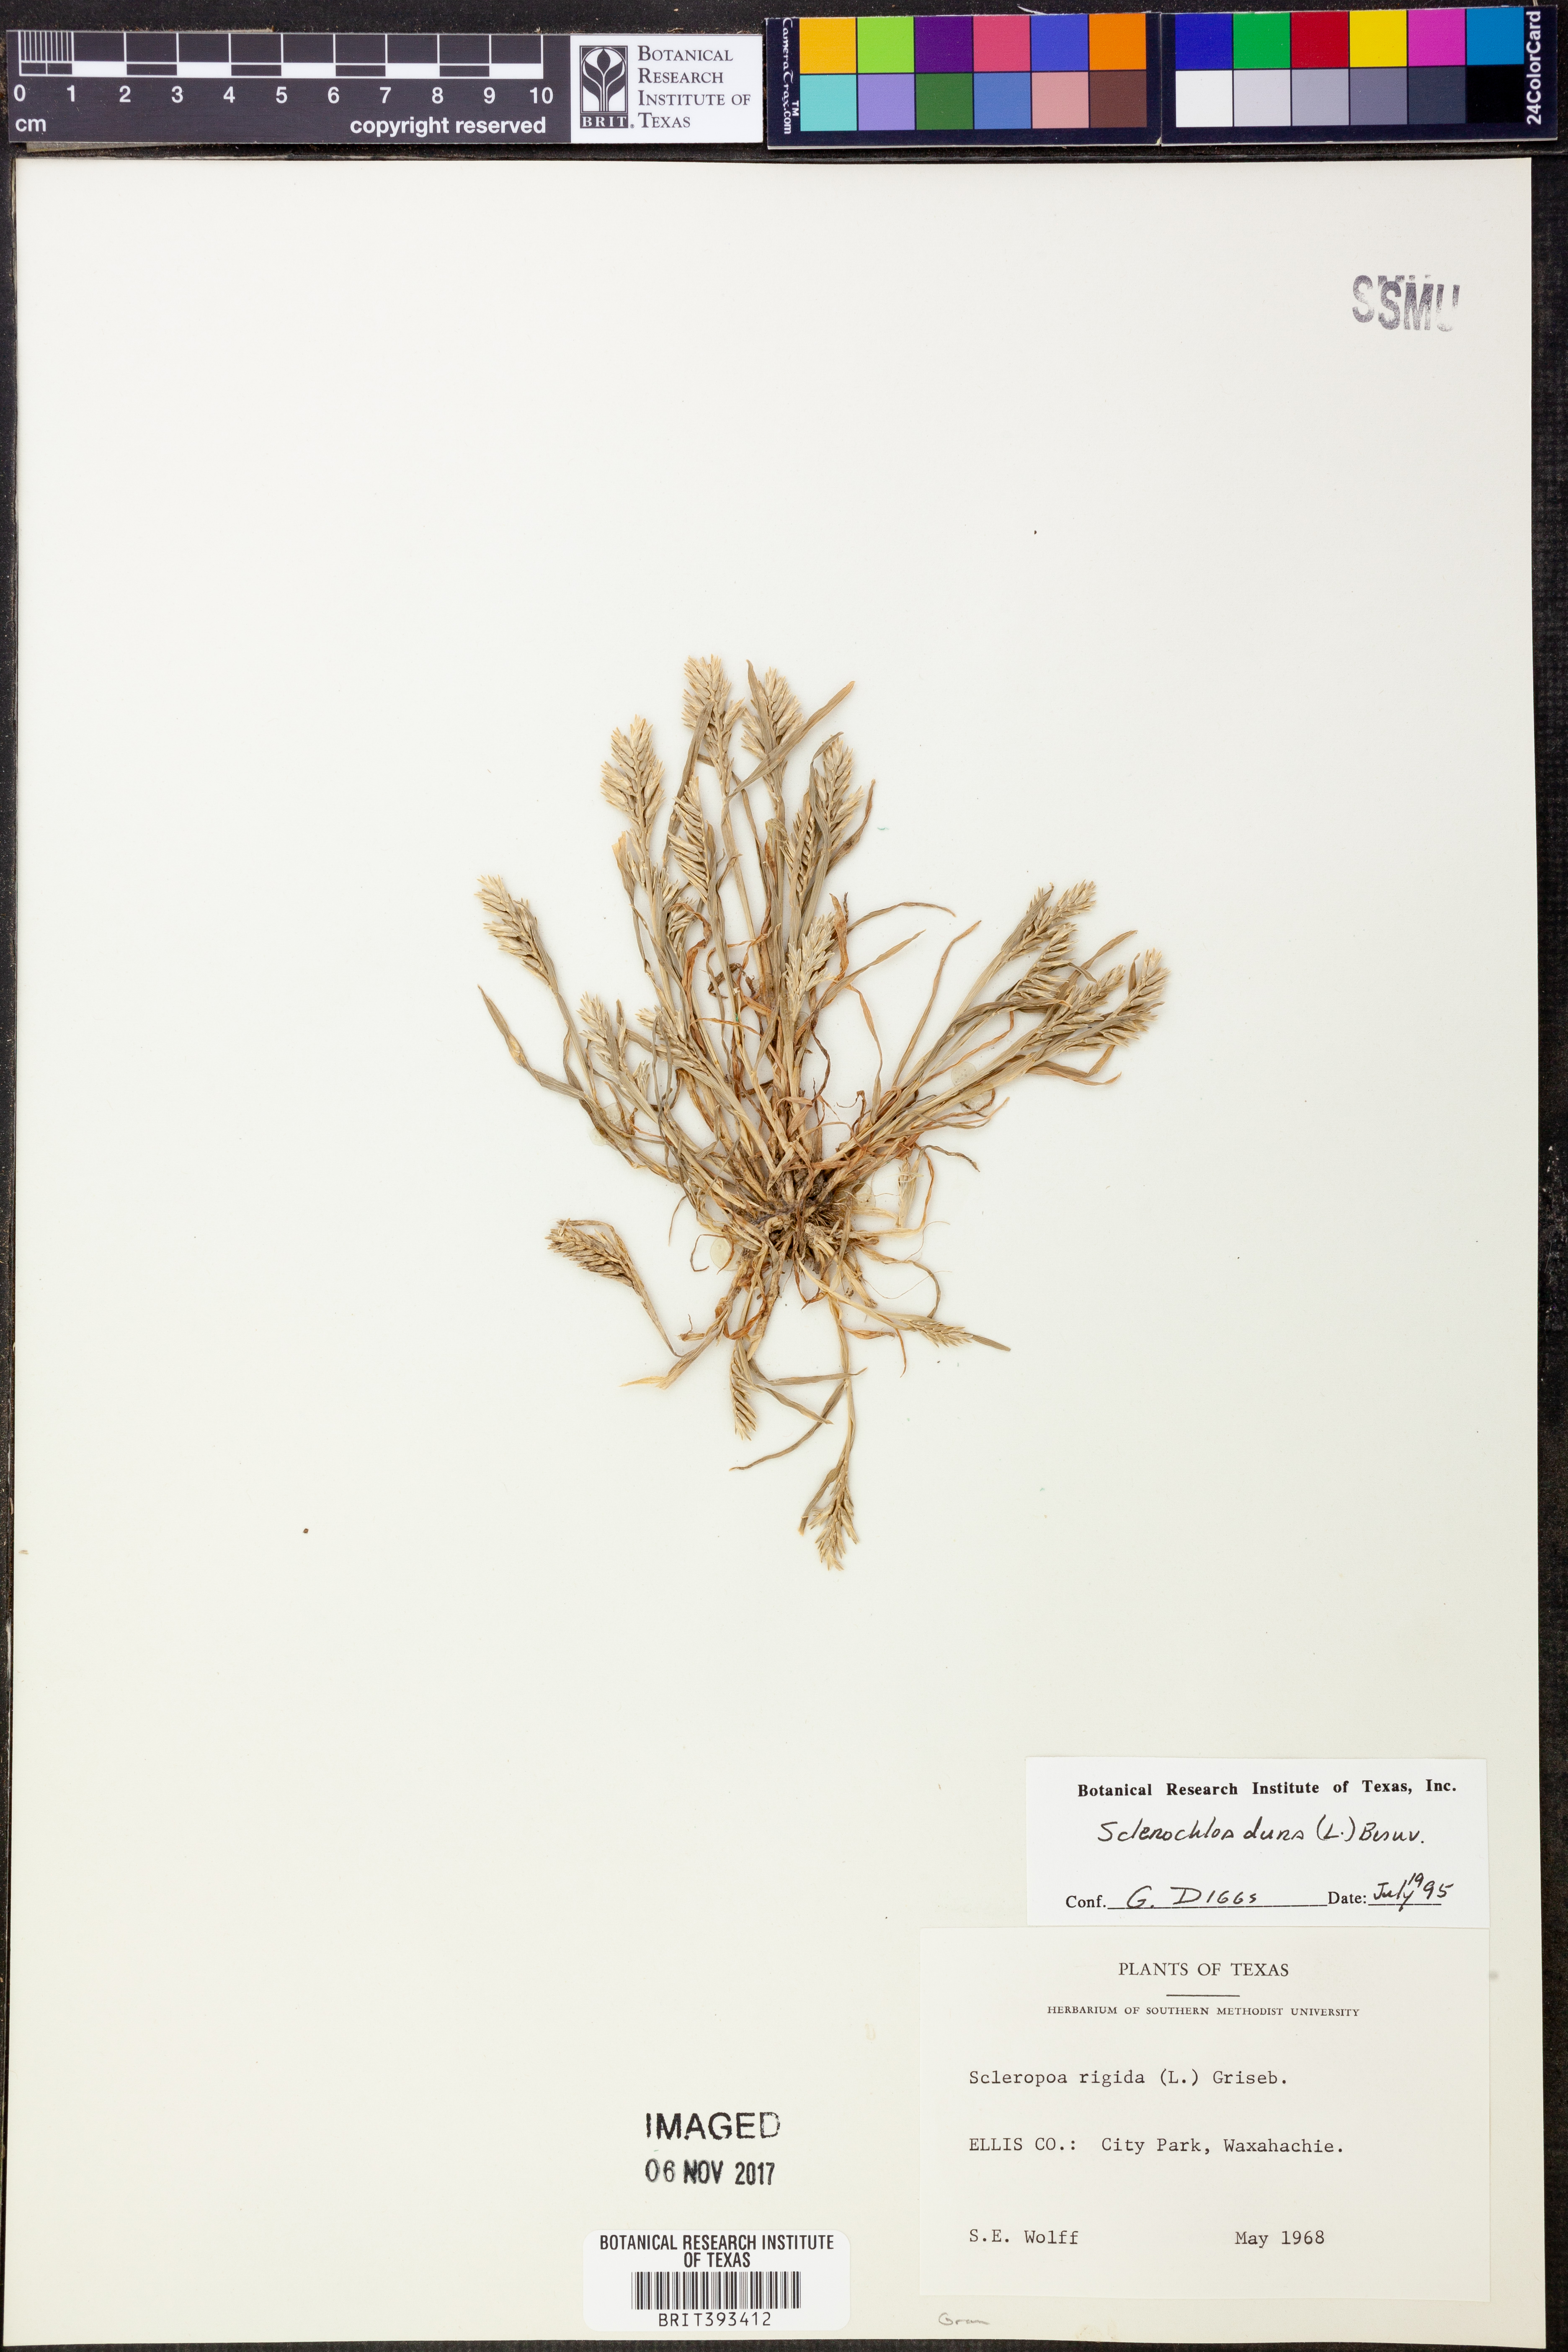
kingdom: Plantae
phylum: Tracheophyta
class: Liliopsida
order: Poales
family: Poaceae
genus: Sclerochloa
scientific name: Sclerochloa dura
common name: Common hardgrass
